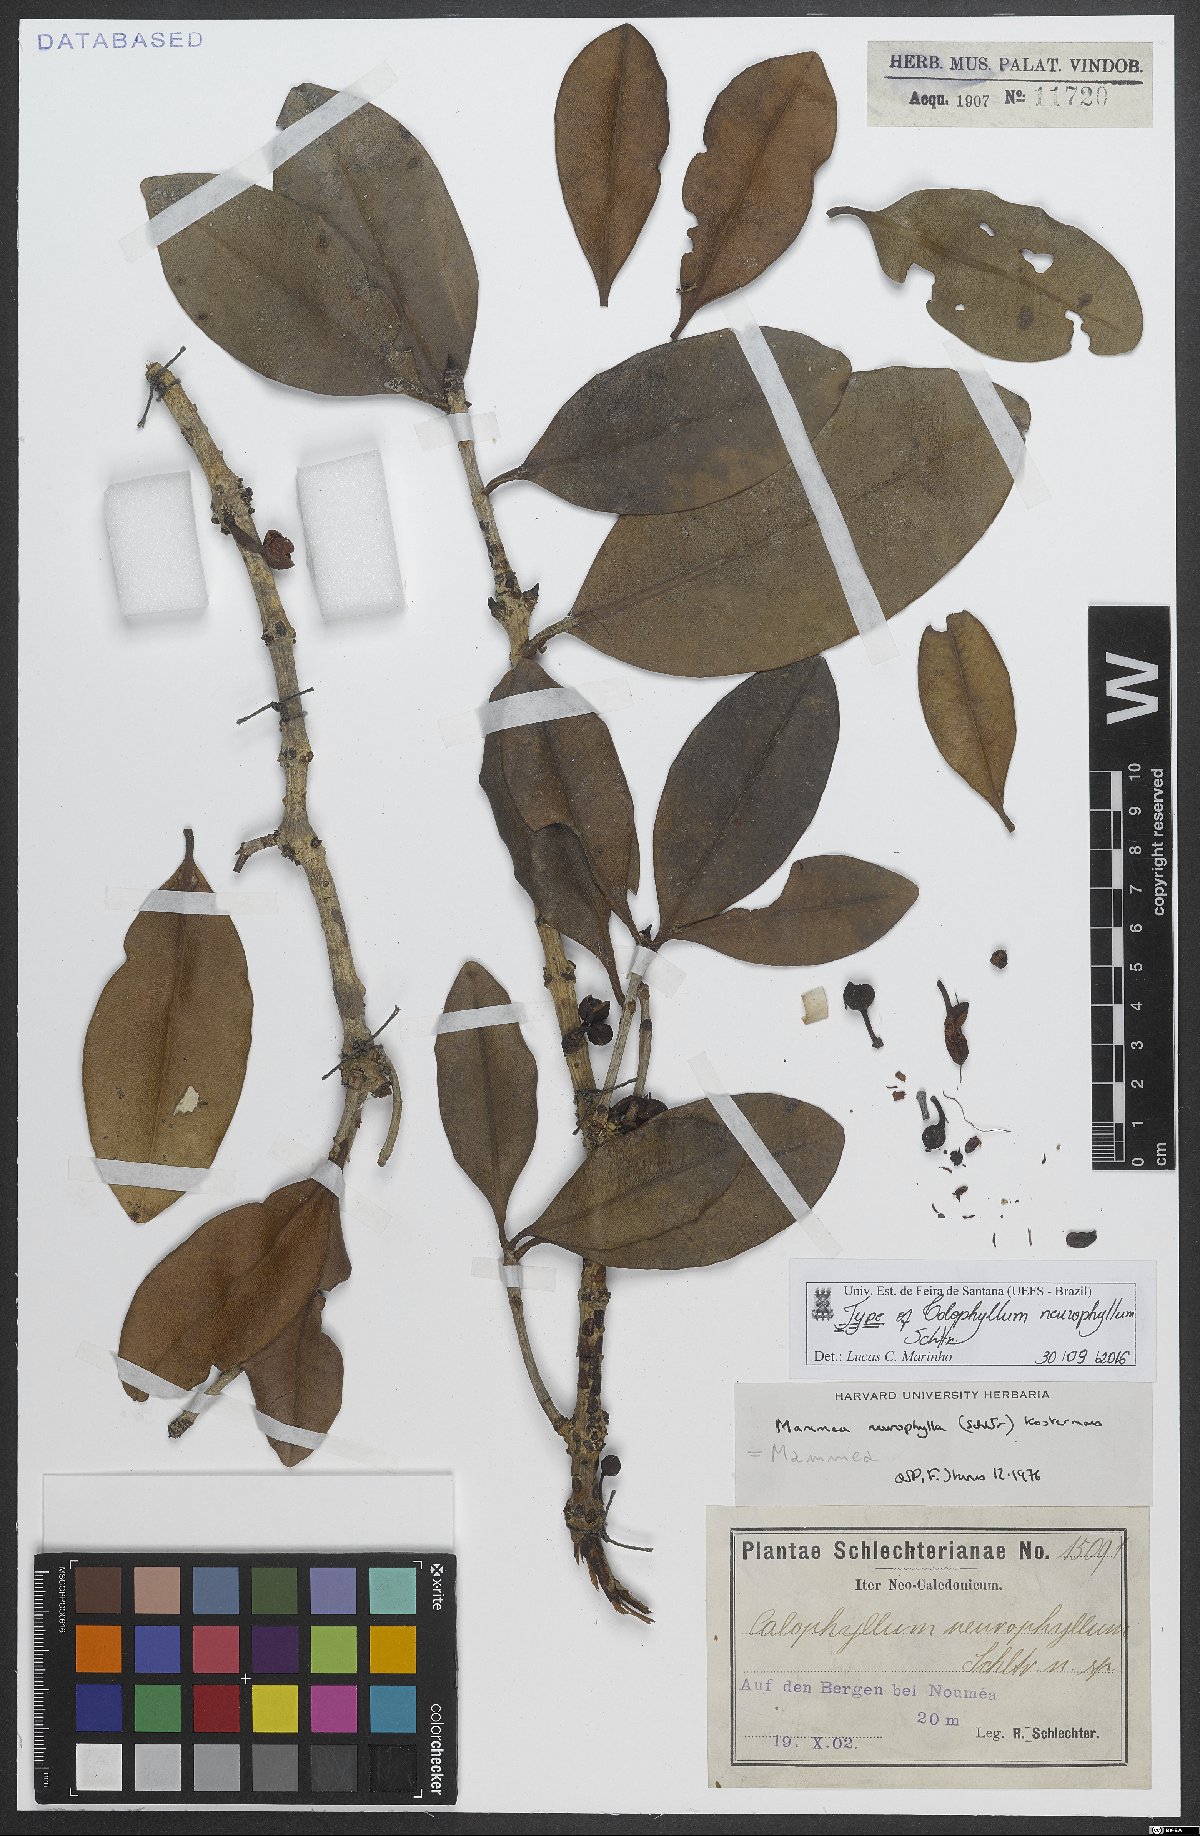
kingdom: Plantae
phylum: Tracheophyta
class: Magnoliopsida
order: Malpighiales
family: Calophyllaceae
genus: Mammea
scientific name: Mammea neurophylla
